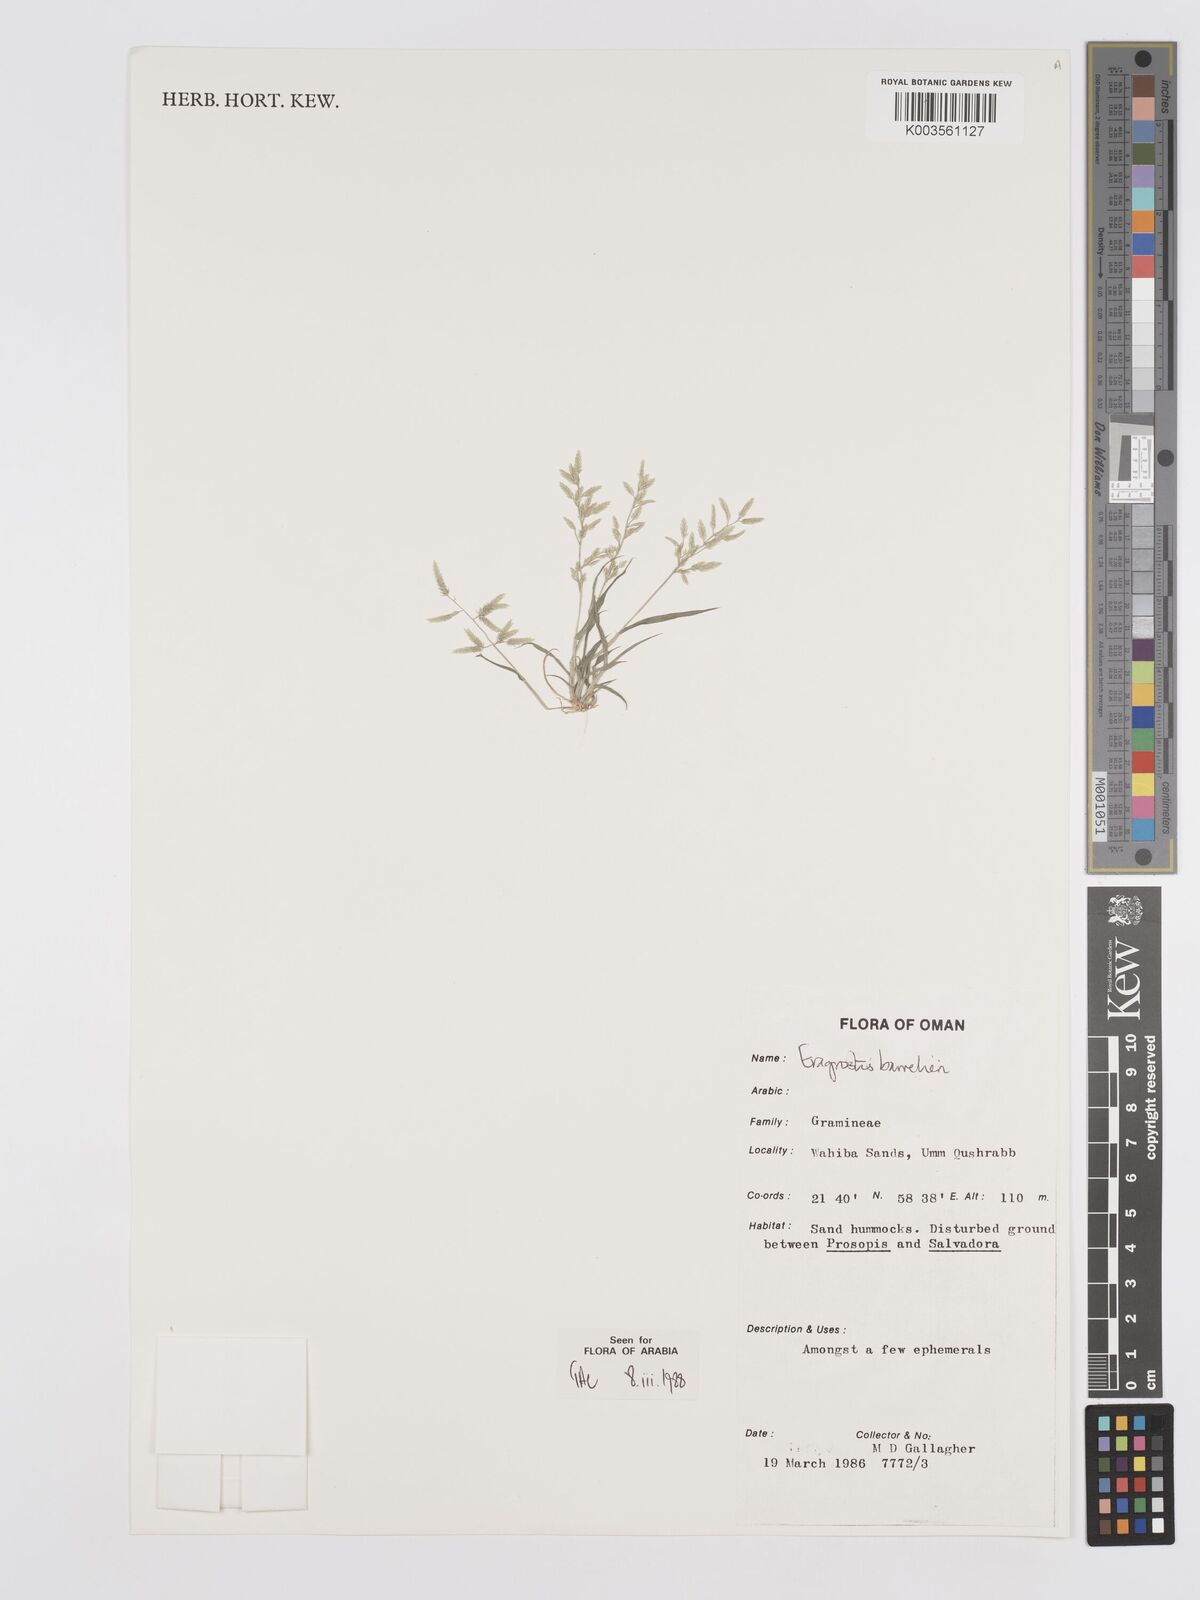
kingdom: Plantae
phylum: Tracheophyta
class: Liliopsida
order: Poales
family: Poaceae
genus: Eragrostis
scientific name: Eragrostis barrelieri
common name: Mediterranean lovegrass
